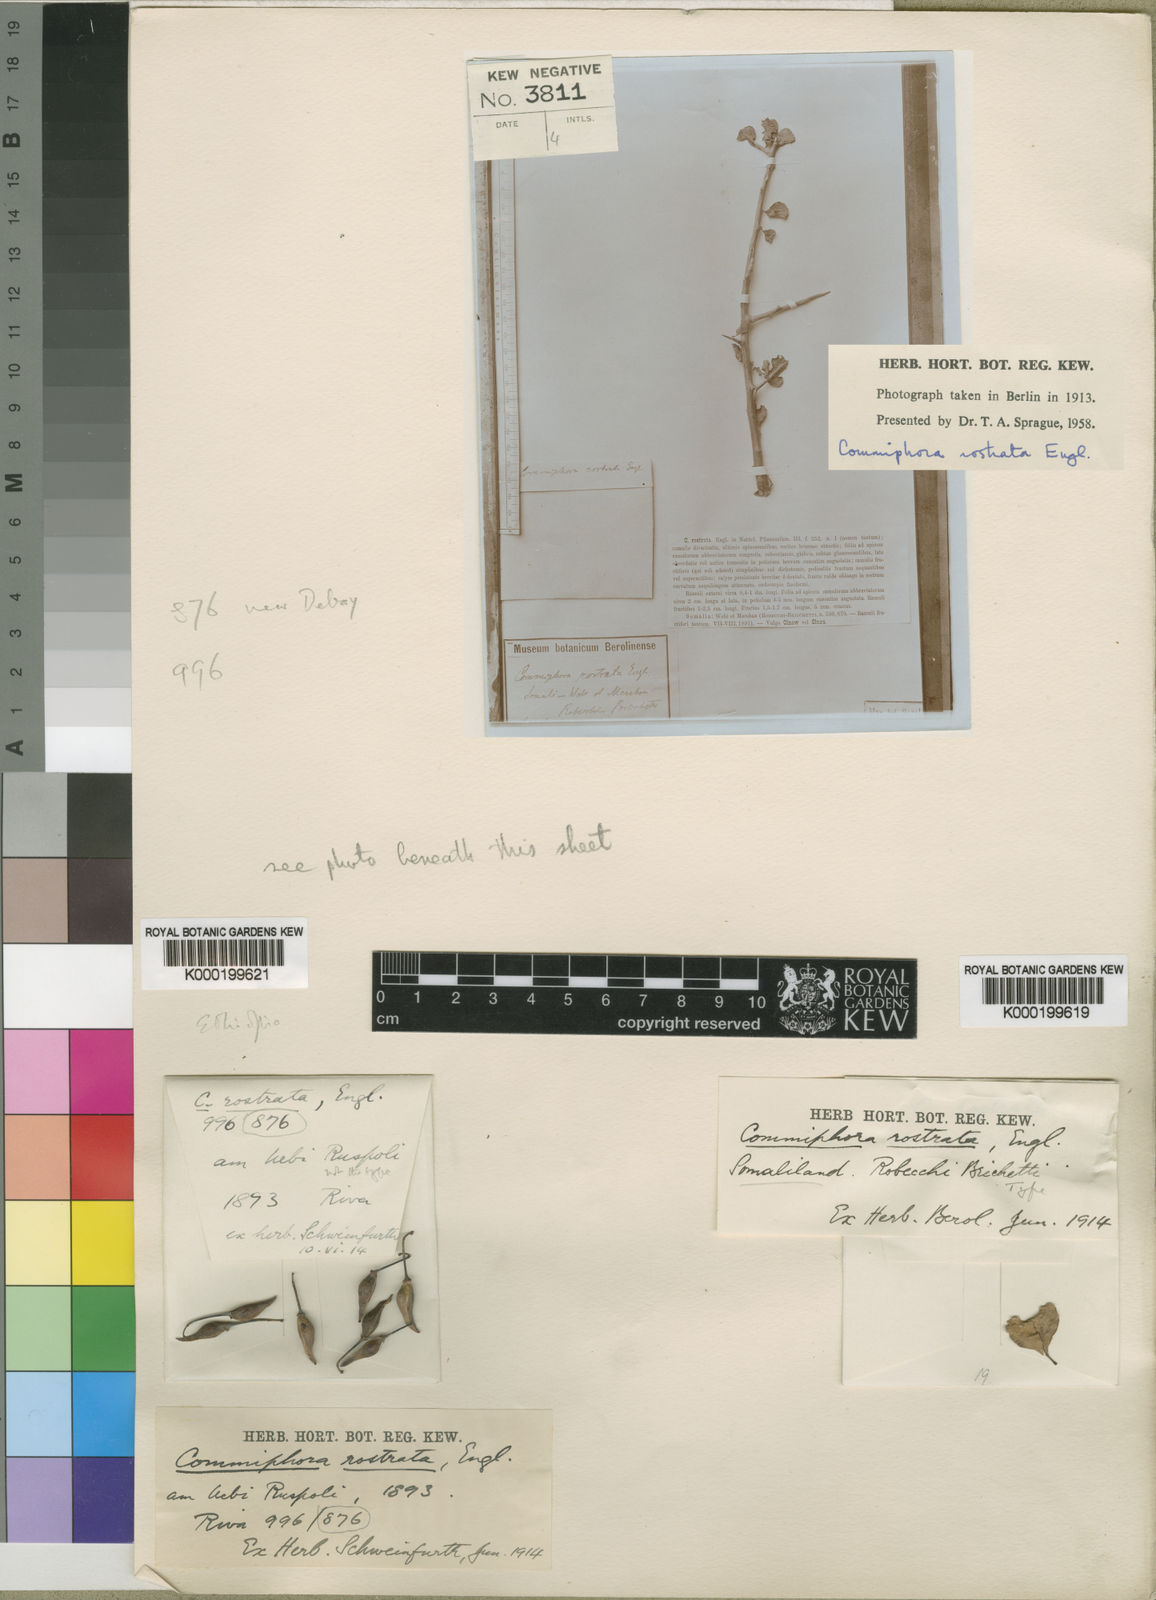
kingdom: Plantae
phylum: Tracheophyta
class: Magnoliopsida
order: Sapindales
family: Burseraceae
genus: Commiphora
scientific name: Commiphora rostrata
